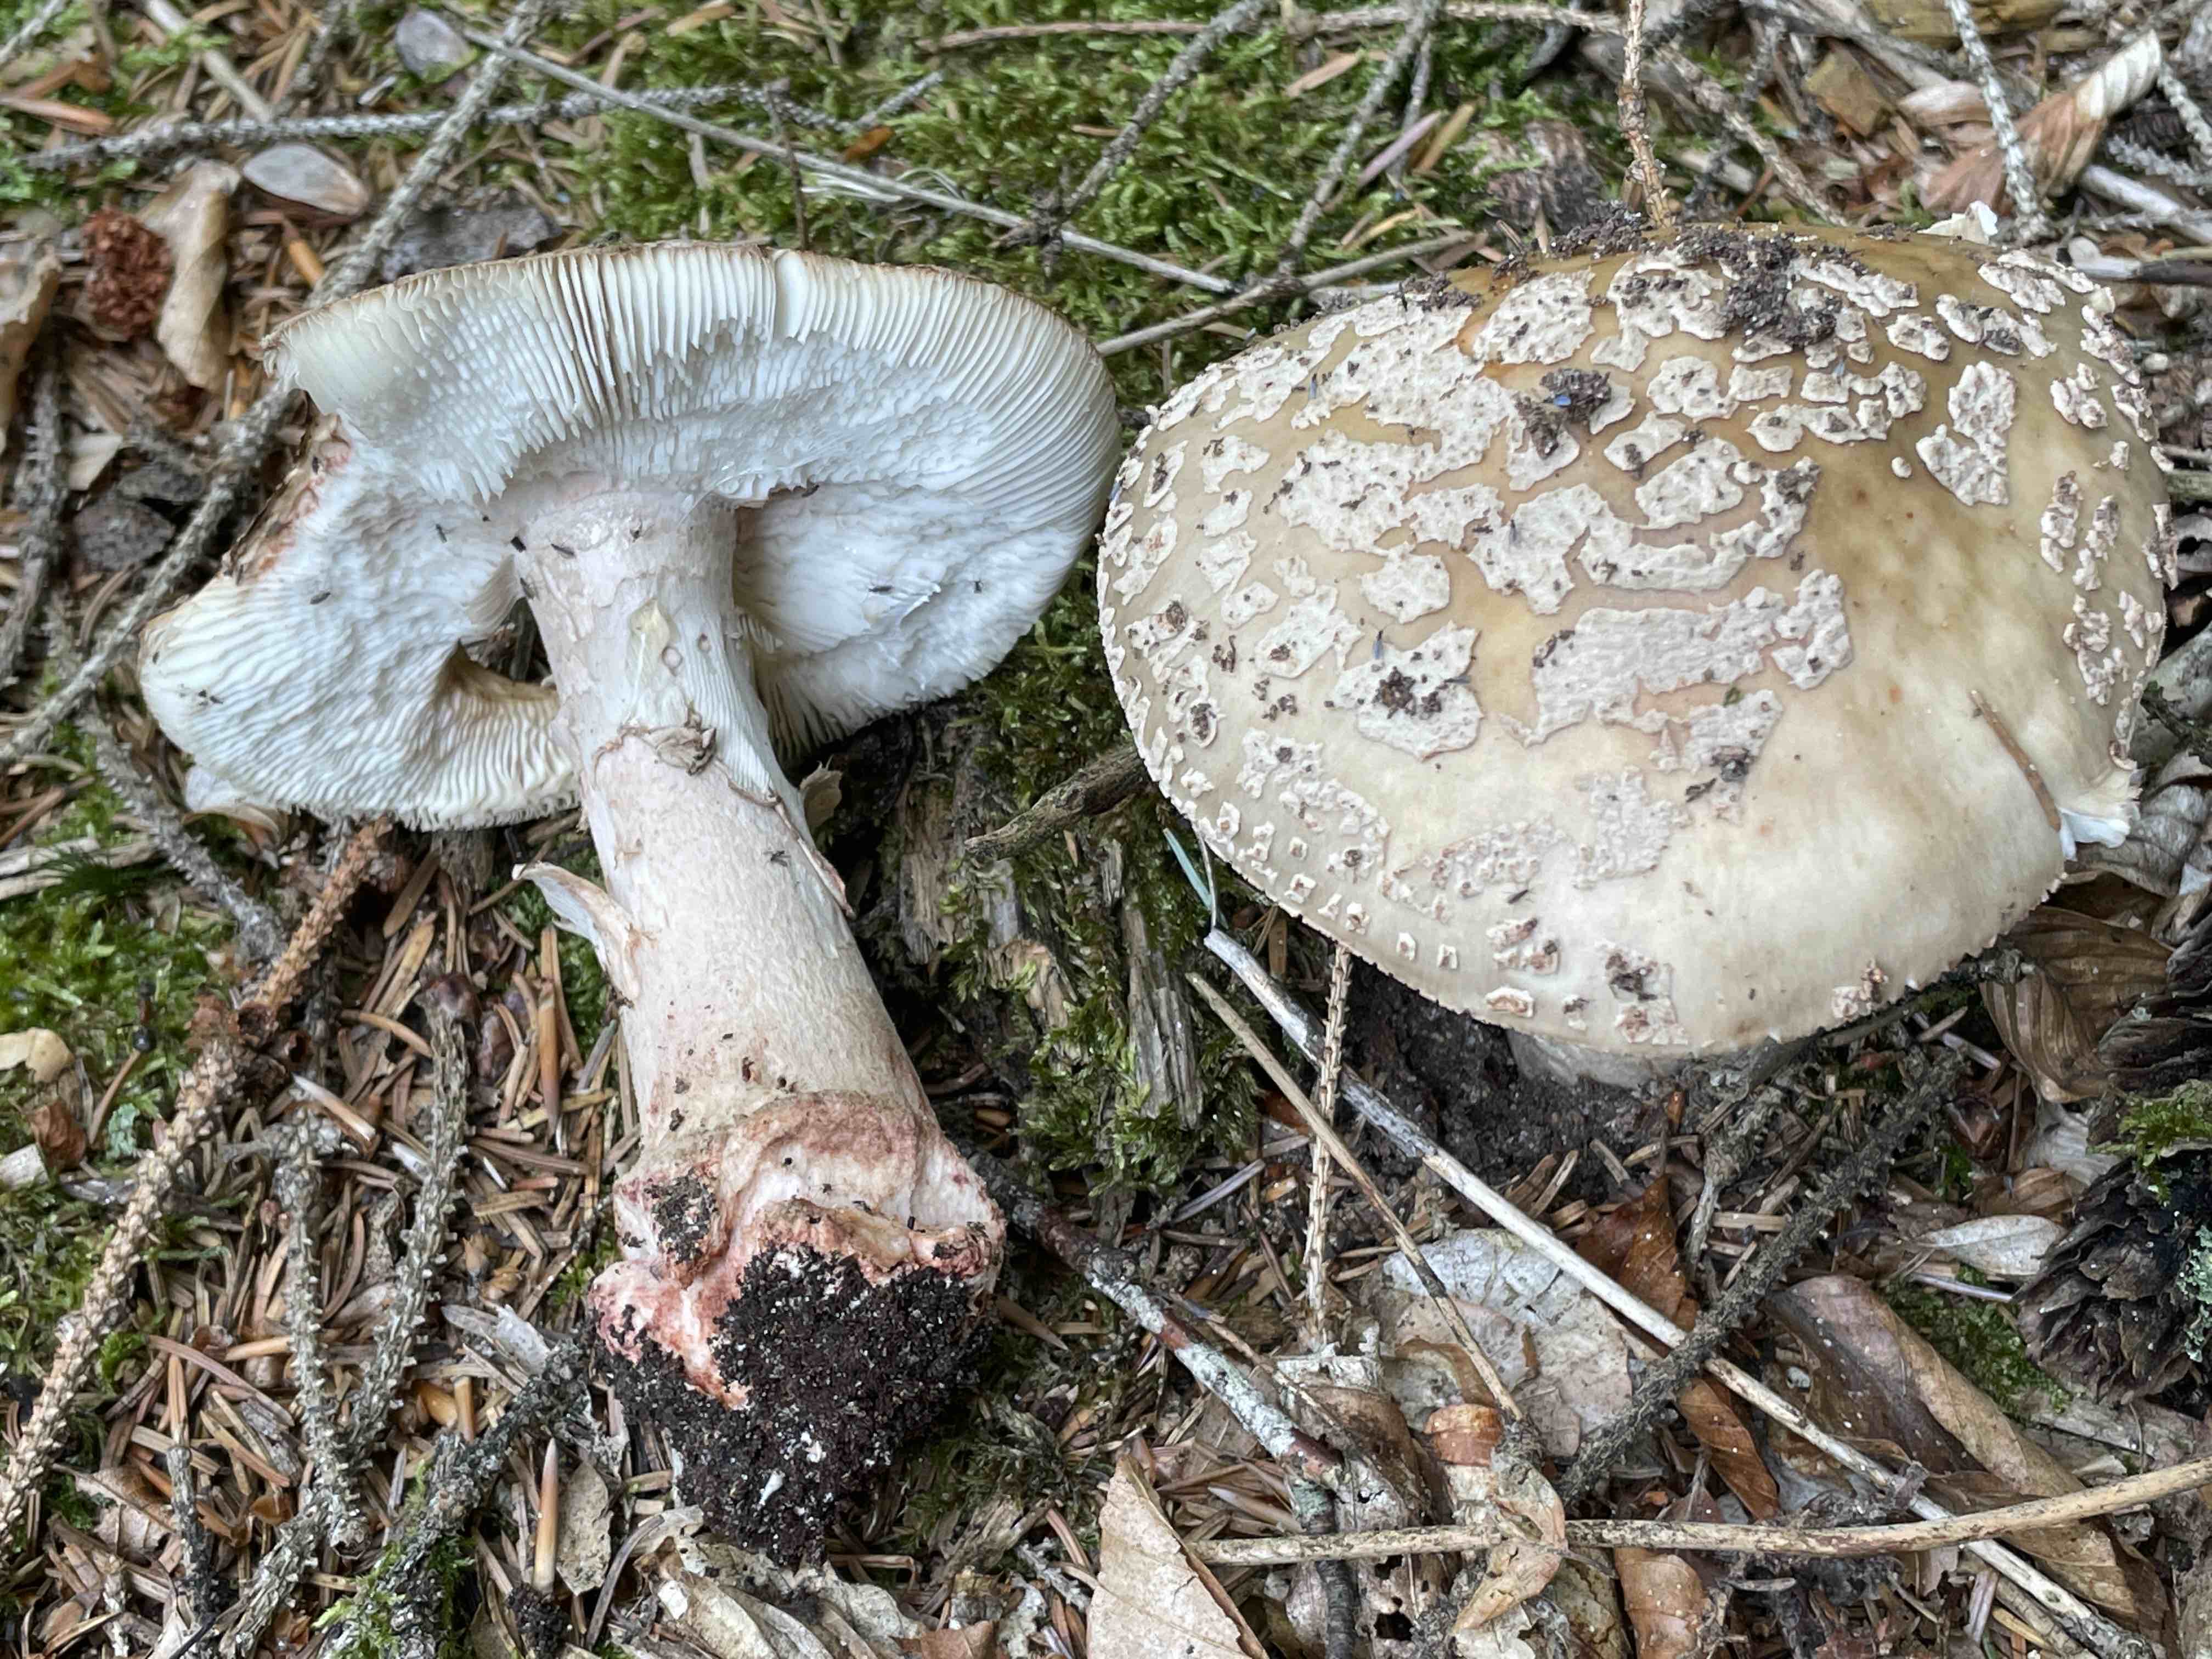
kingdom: Fungi
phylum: Basidiomycota
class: Agaricomycetes
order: Agaricales
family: Amanitaceae
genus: Amanita
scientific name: Amanita rubescens
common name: rødmende fluesvamp
